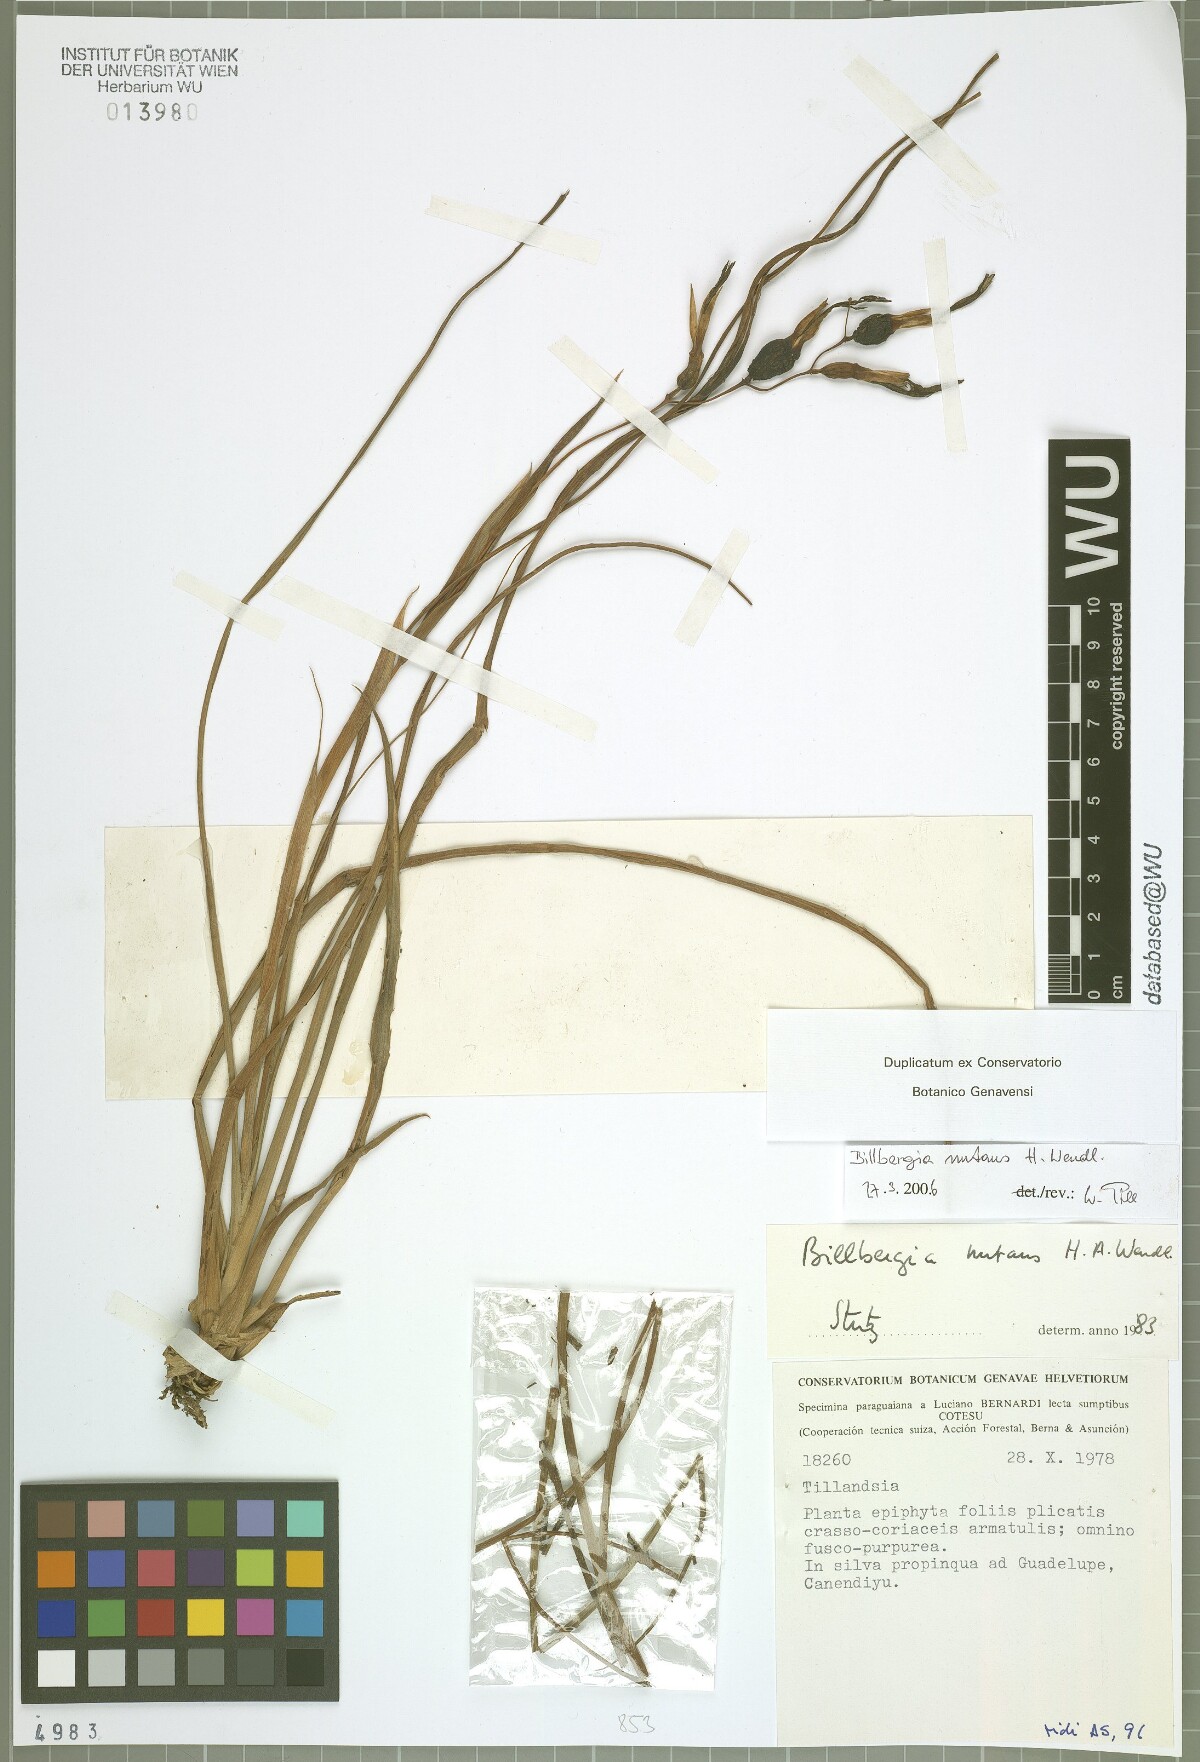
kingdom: Plantae
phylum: Tracheophyta
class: Liliopsida
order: Poales
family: Bromeliaceae
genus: Billbergia
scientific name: Billbergia nutans
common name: Friendship-plant
